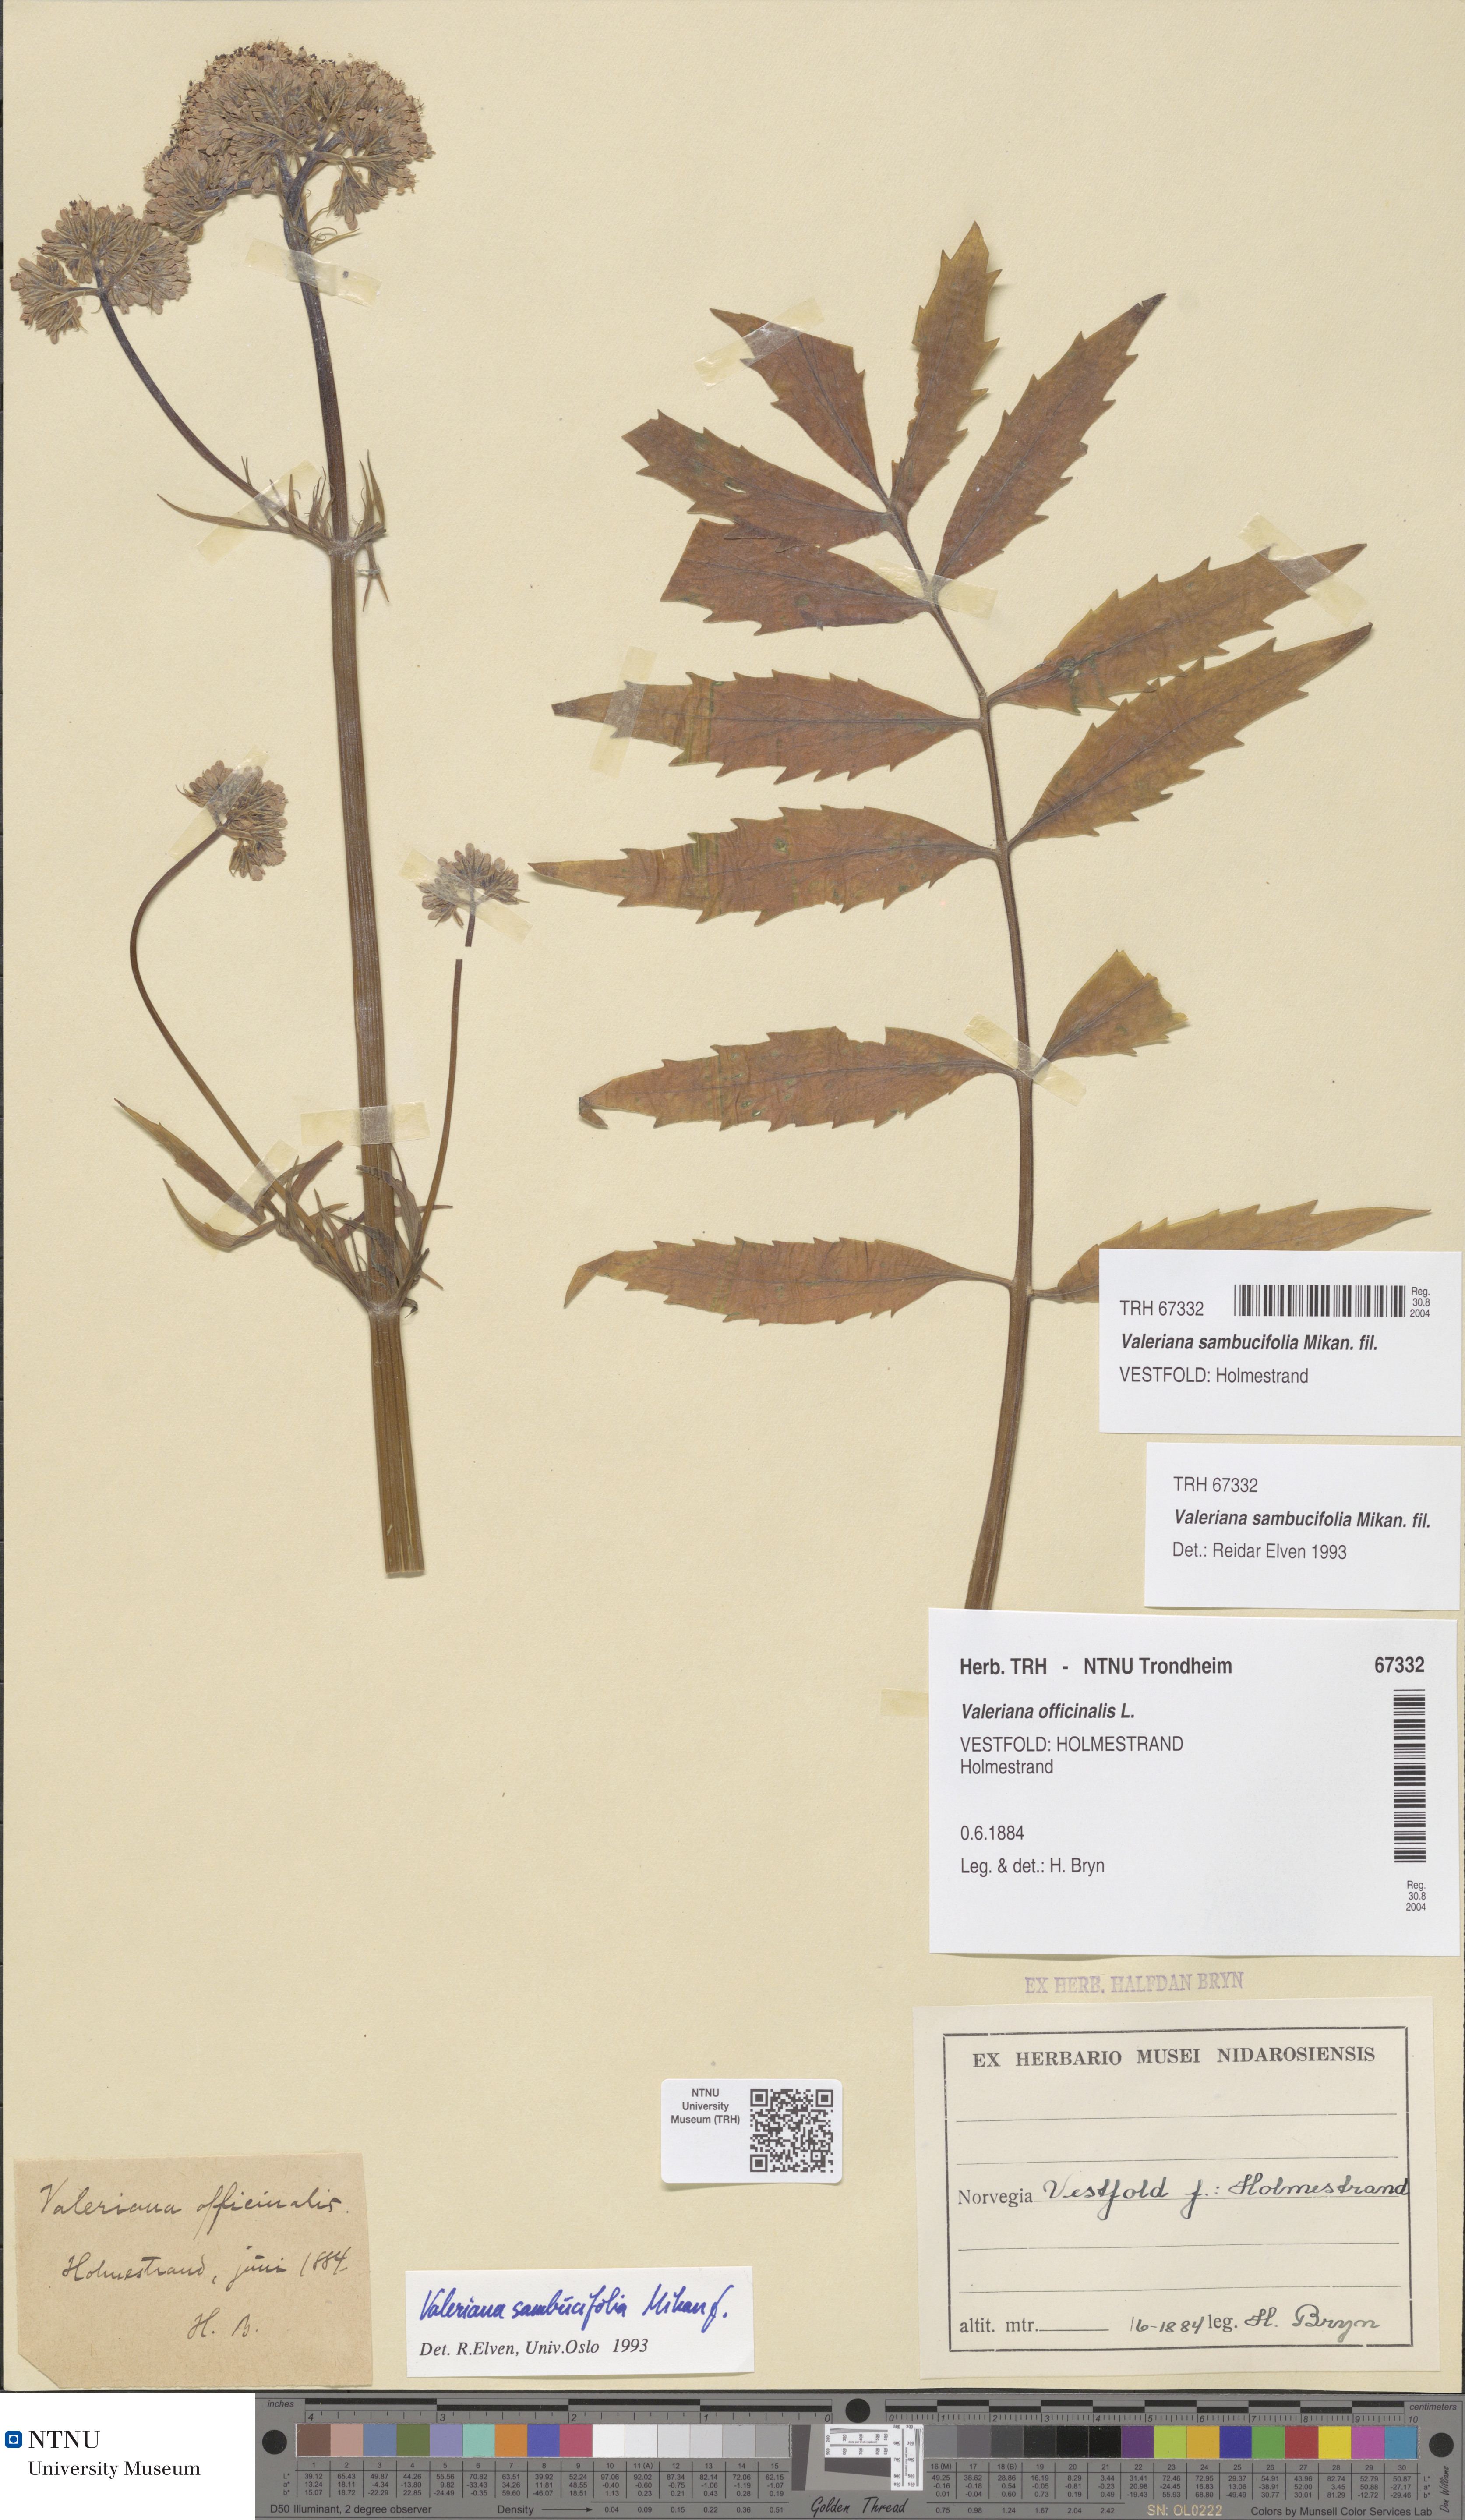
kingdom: Plantae
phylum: Tracheophyta
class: Magnoliopsida
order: Dipsacales
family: Caprifoliaceae
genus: Valeriana
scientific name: Valeriana excelsa
